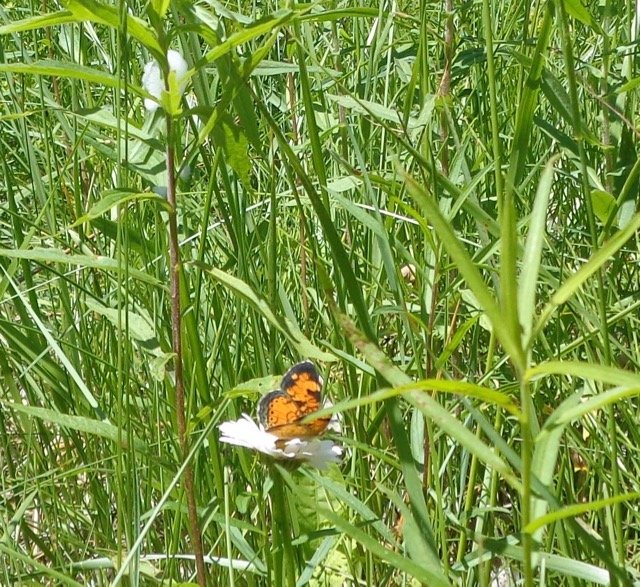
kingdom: Animalia
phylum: Arthropoda
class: Insecta
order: Lepidoptera
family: Nymphalidae
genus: Phyciodes
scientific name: Phyciodes tharos
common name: Pearl Crescent
